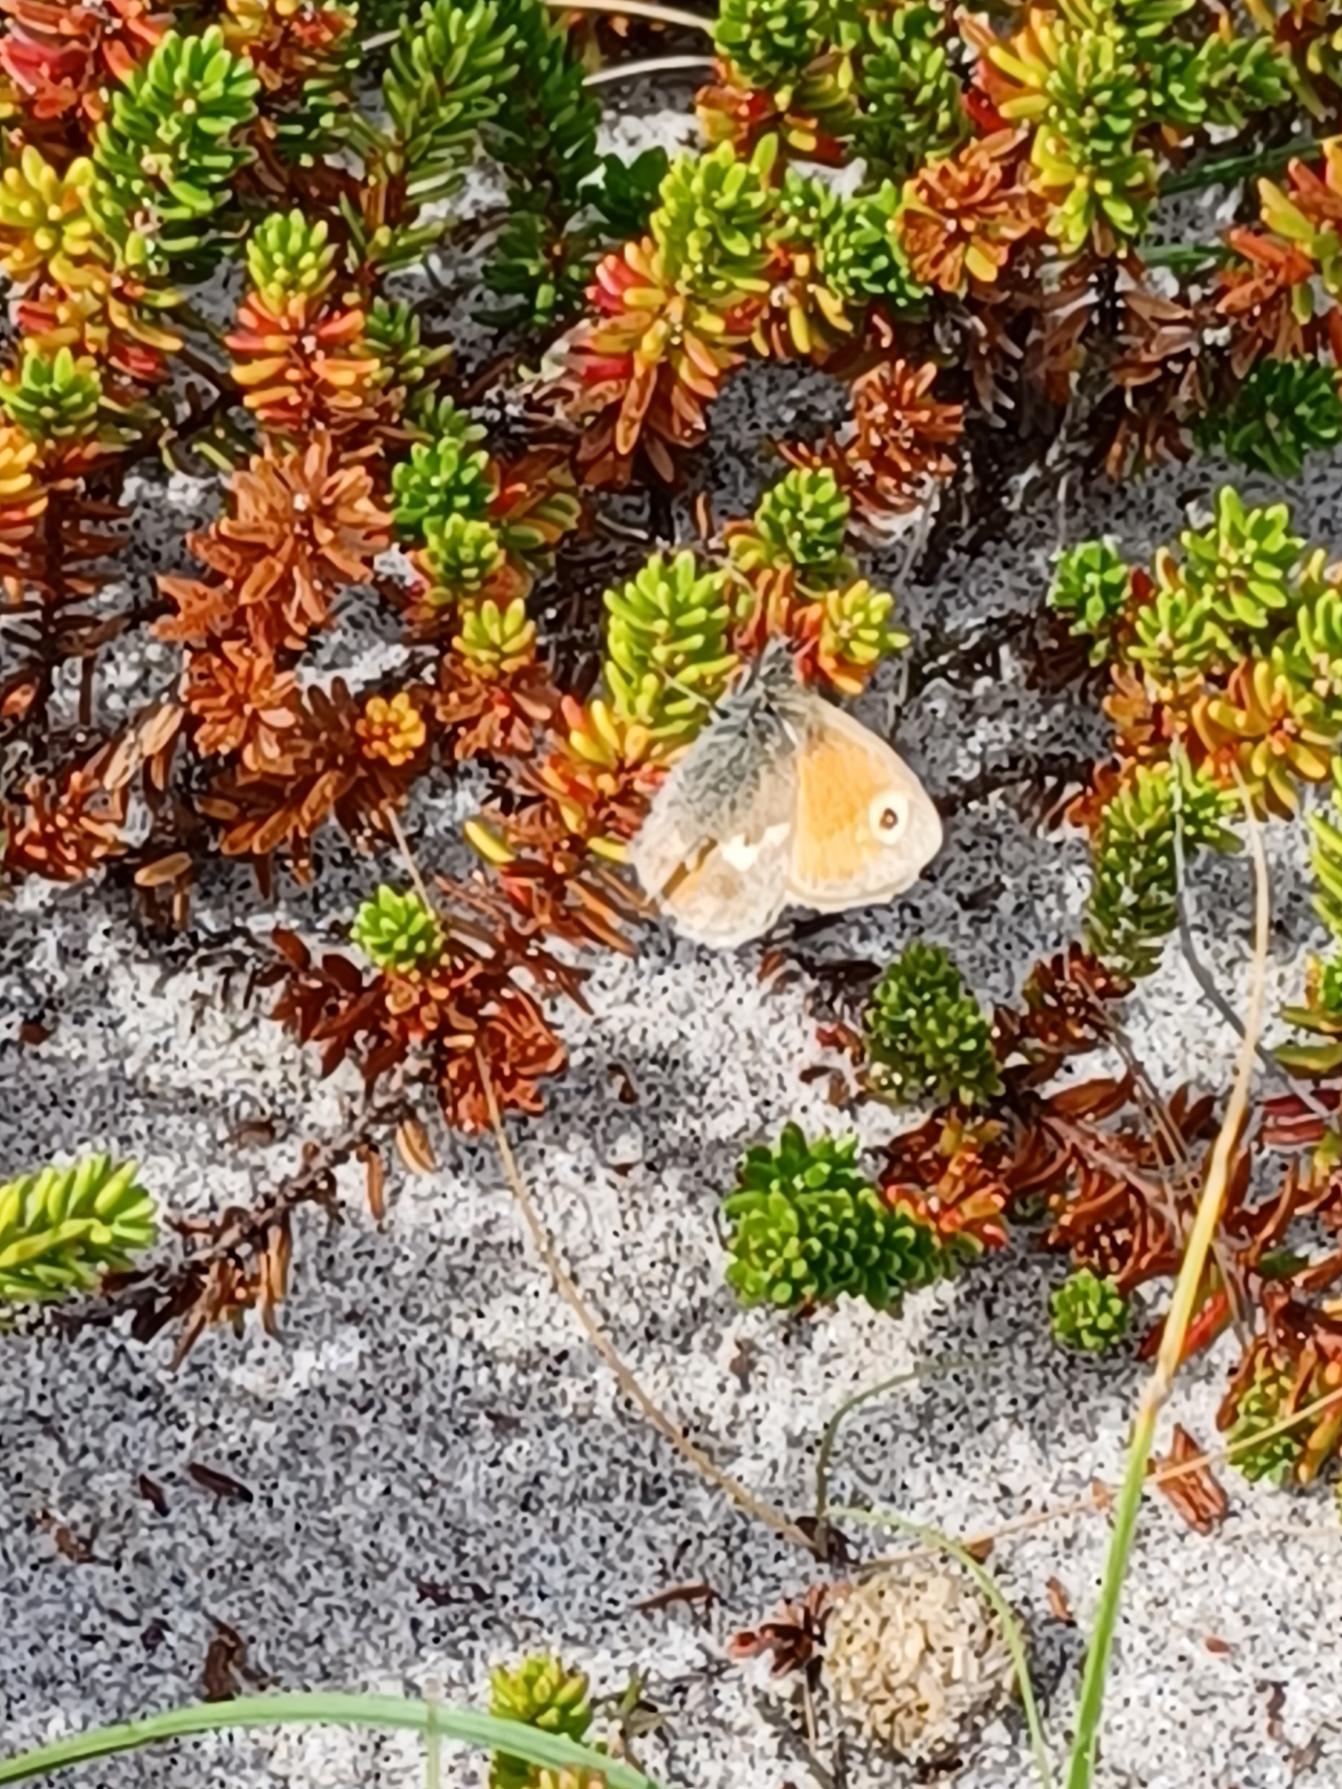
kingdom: Animalia
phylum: Arthropoda
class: Insecta
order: Lepidoptera
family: Nymphalidae
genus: Coenonympha
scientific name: Coenonympha pamphilus
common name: Okkergul randøje
